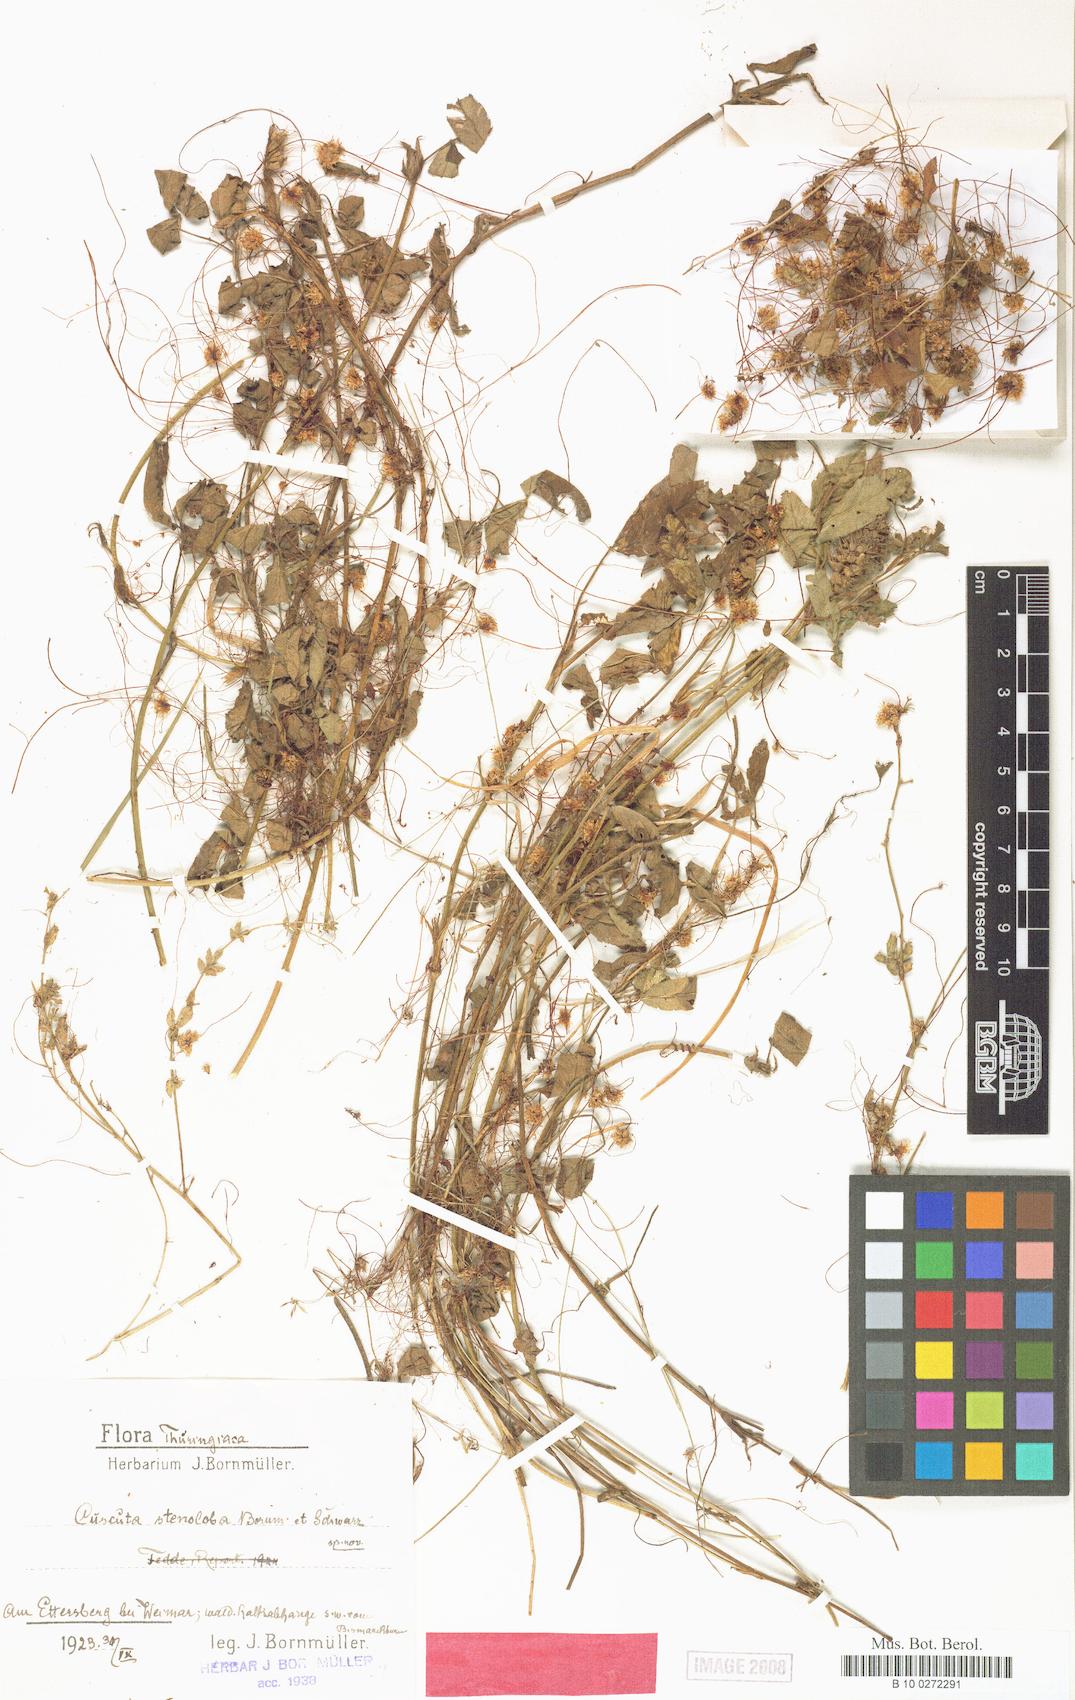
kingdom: Plantae
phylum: Tracheophyta
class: Magnoliopsida
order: Solanales
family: Convolvulaceae
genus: Cuscuta
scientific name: Cuscuta epithymum
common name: Clover dodder
